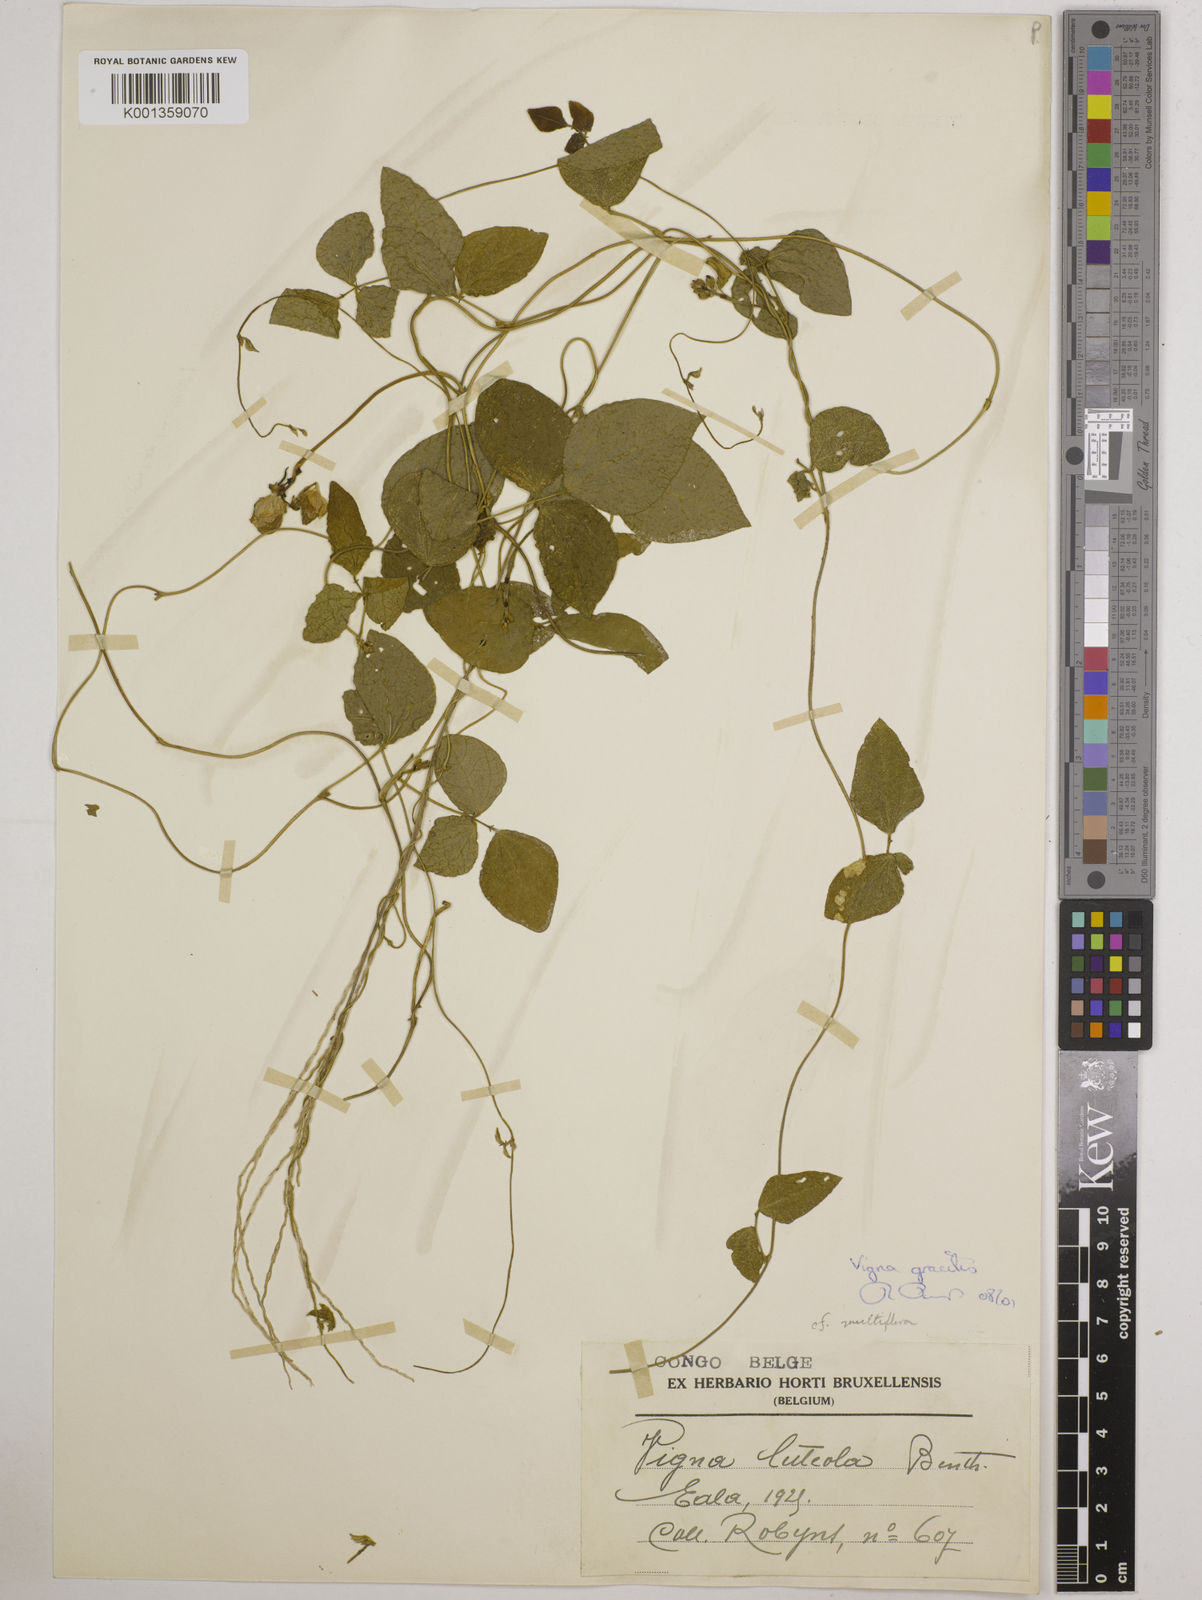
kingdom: Plantae
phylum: Tracheophyta
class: Magnoliopsida
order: Fabales
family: Fabaceae
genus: Vigna
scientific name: Vigna gracilis
